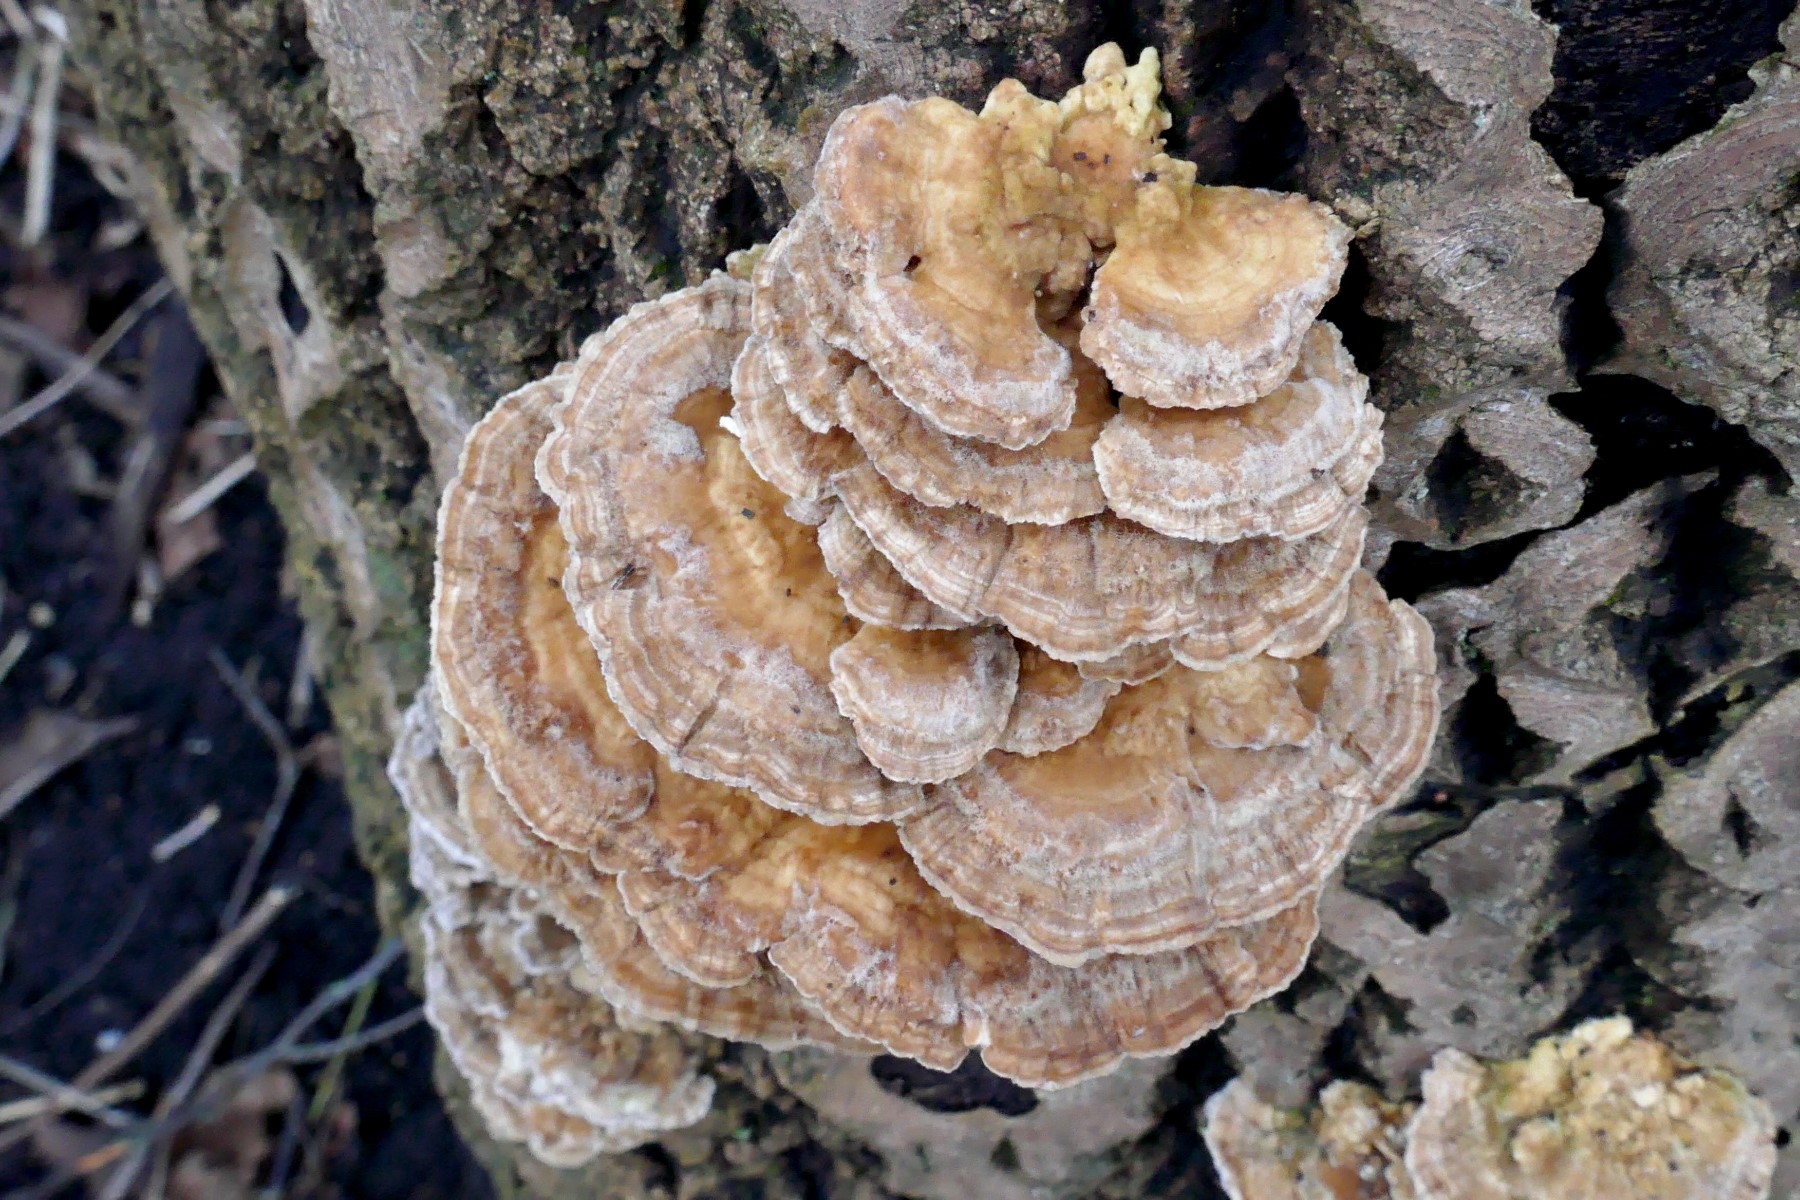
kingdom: Fungi
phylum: Basidiomycota
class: Agaricomycetes
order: Polyporales
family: Polyporaceae
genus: Trametes
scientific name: Trametes ochracea
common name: bæltet læderporesvamp
